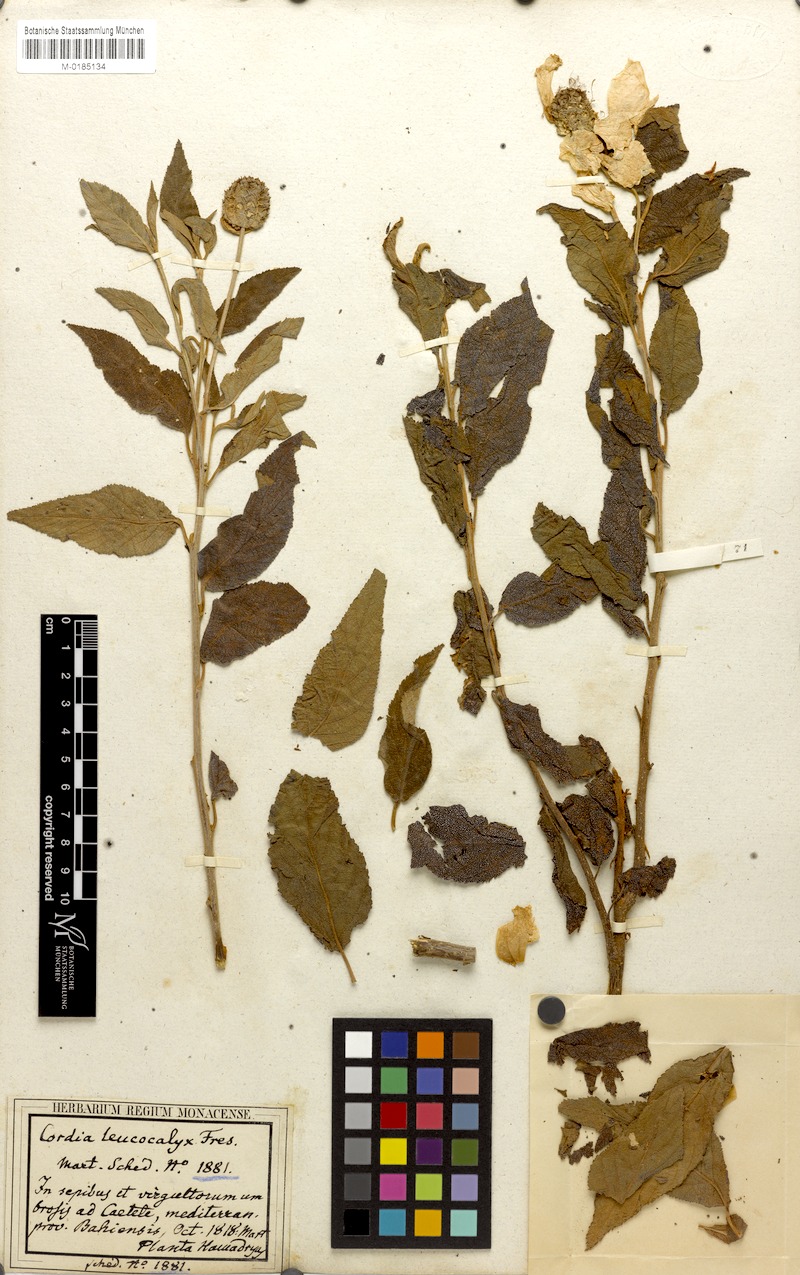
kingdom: Plantae
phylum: Tracheophyta
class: Magnoliopsida
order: Boraginales
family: Cordiaceae
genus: Varronia
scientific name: Varronia leucocephala
